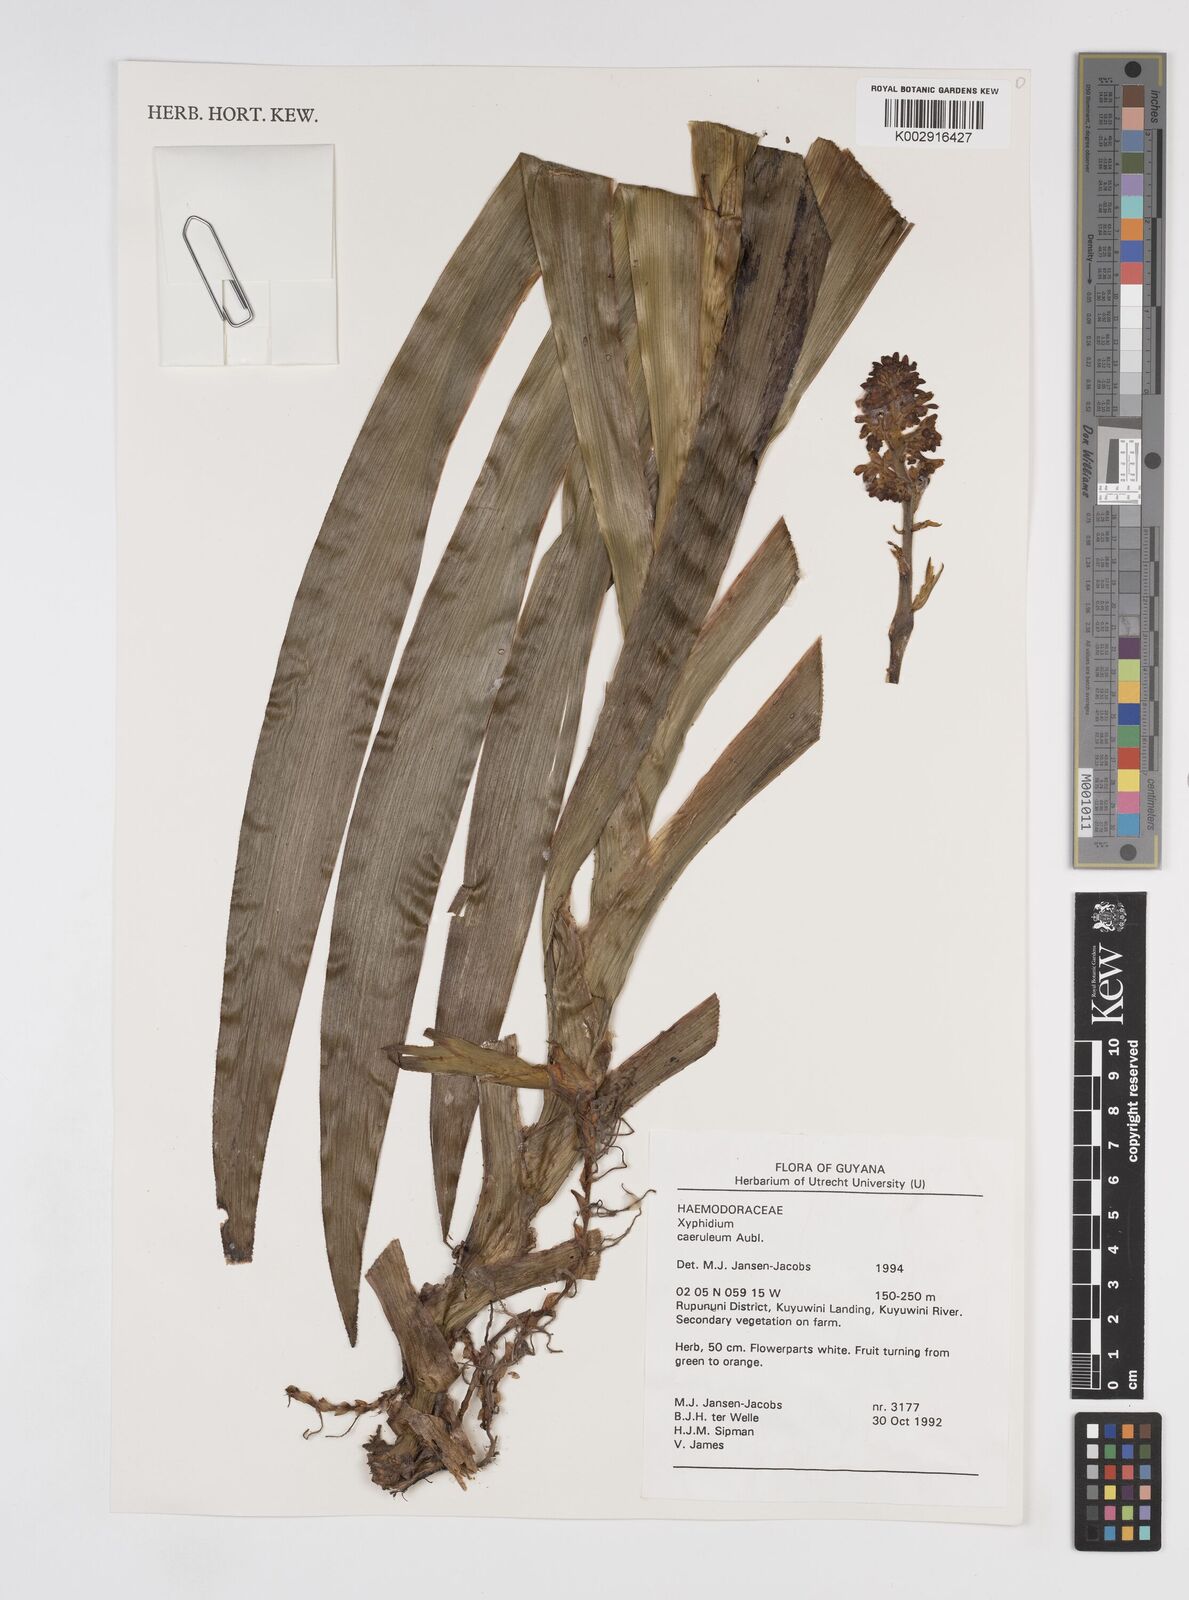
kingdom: Plantae
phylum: Tracheophyta
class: Liliopsida
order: Commelinales
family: Haemodoraceae
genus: Xiphidium
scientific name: Xiphidium caeruleum
